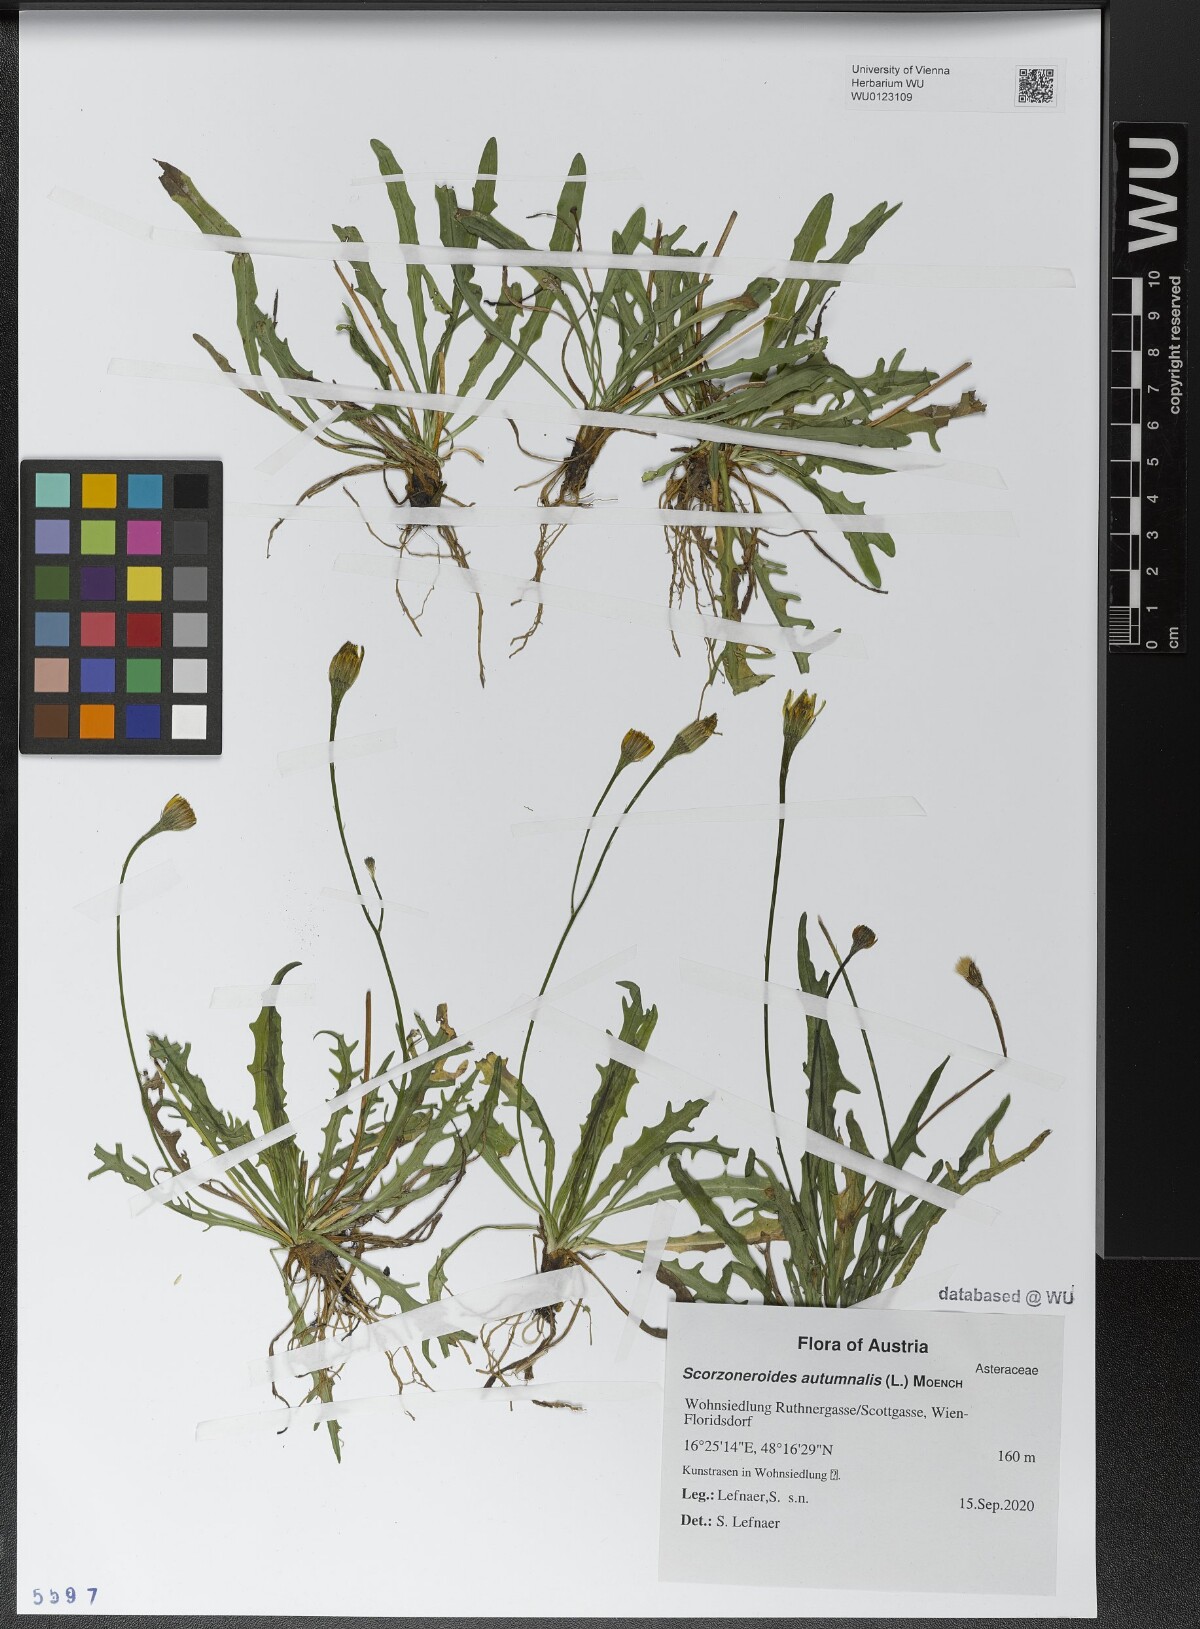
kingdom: Plantae
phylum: Tracheophyta
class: Magnoliopsida
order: Asterales
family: Asteraceae
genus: Scorzoneroides
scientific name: Scorzoneroides autumnalis
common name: Autumn hawkbit
